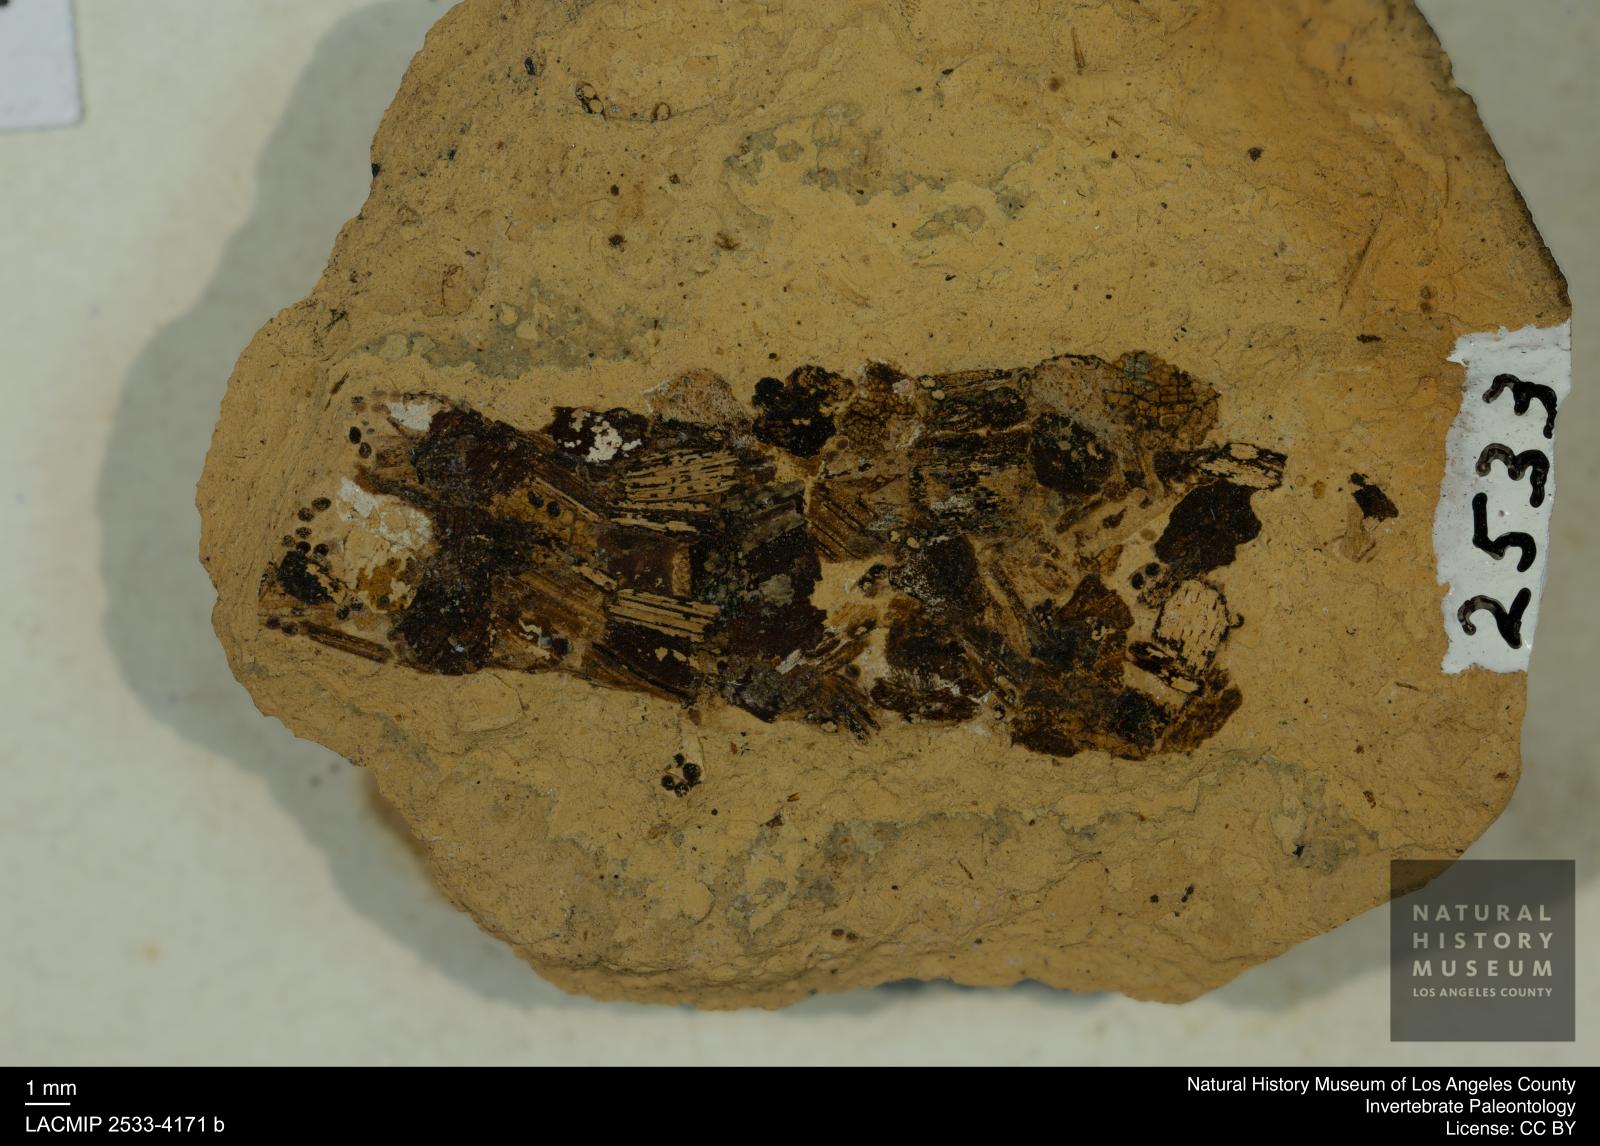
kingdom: Animalia
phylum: Arthropoda
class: Insecta
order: Trichoptera
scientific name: Trichoptera
